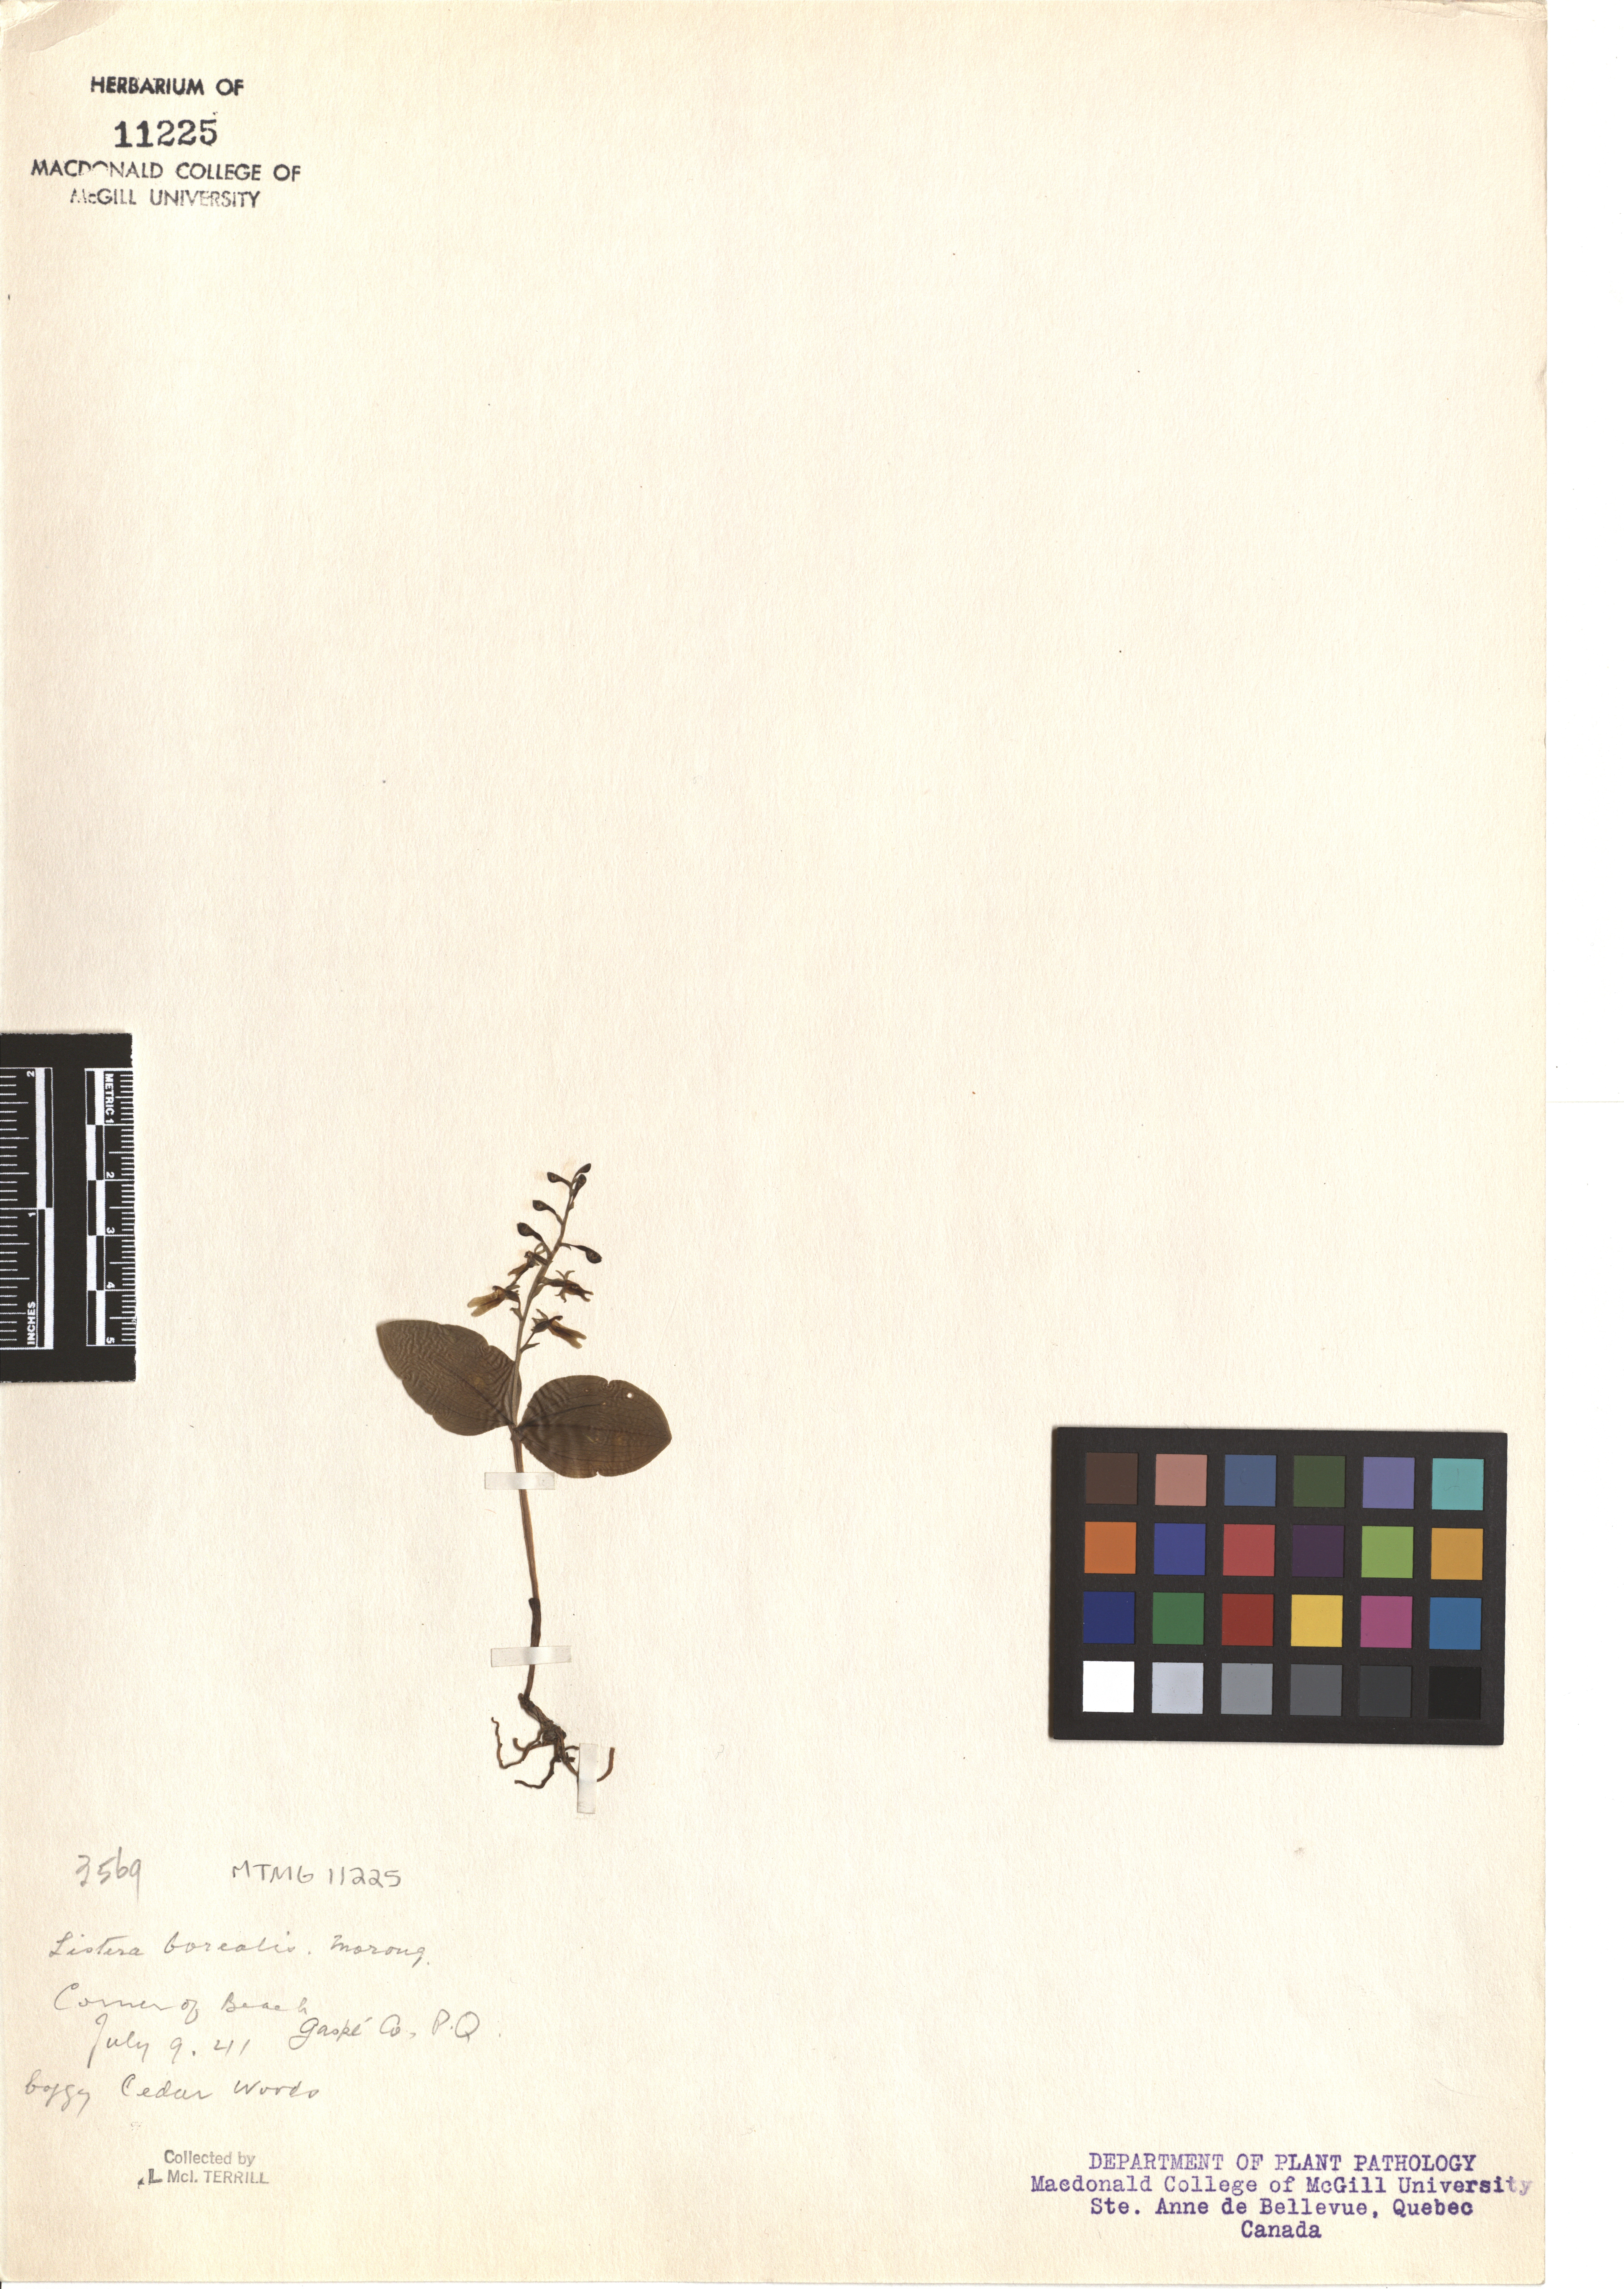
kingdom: Plantae
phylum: Tracheophyta
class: Liliopsida
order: Asparagales
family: Orchidaceae
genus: Neottia
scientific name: Neottia borealis
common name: Northern twayblade
